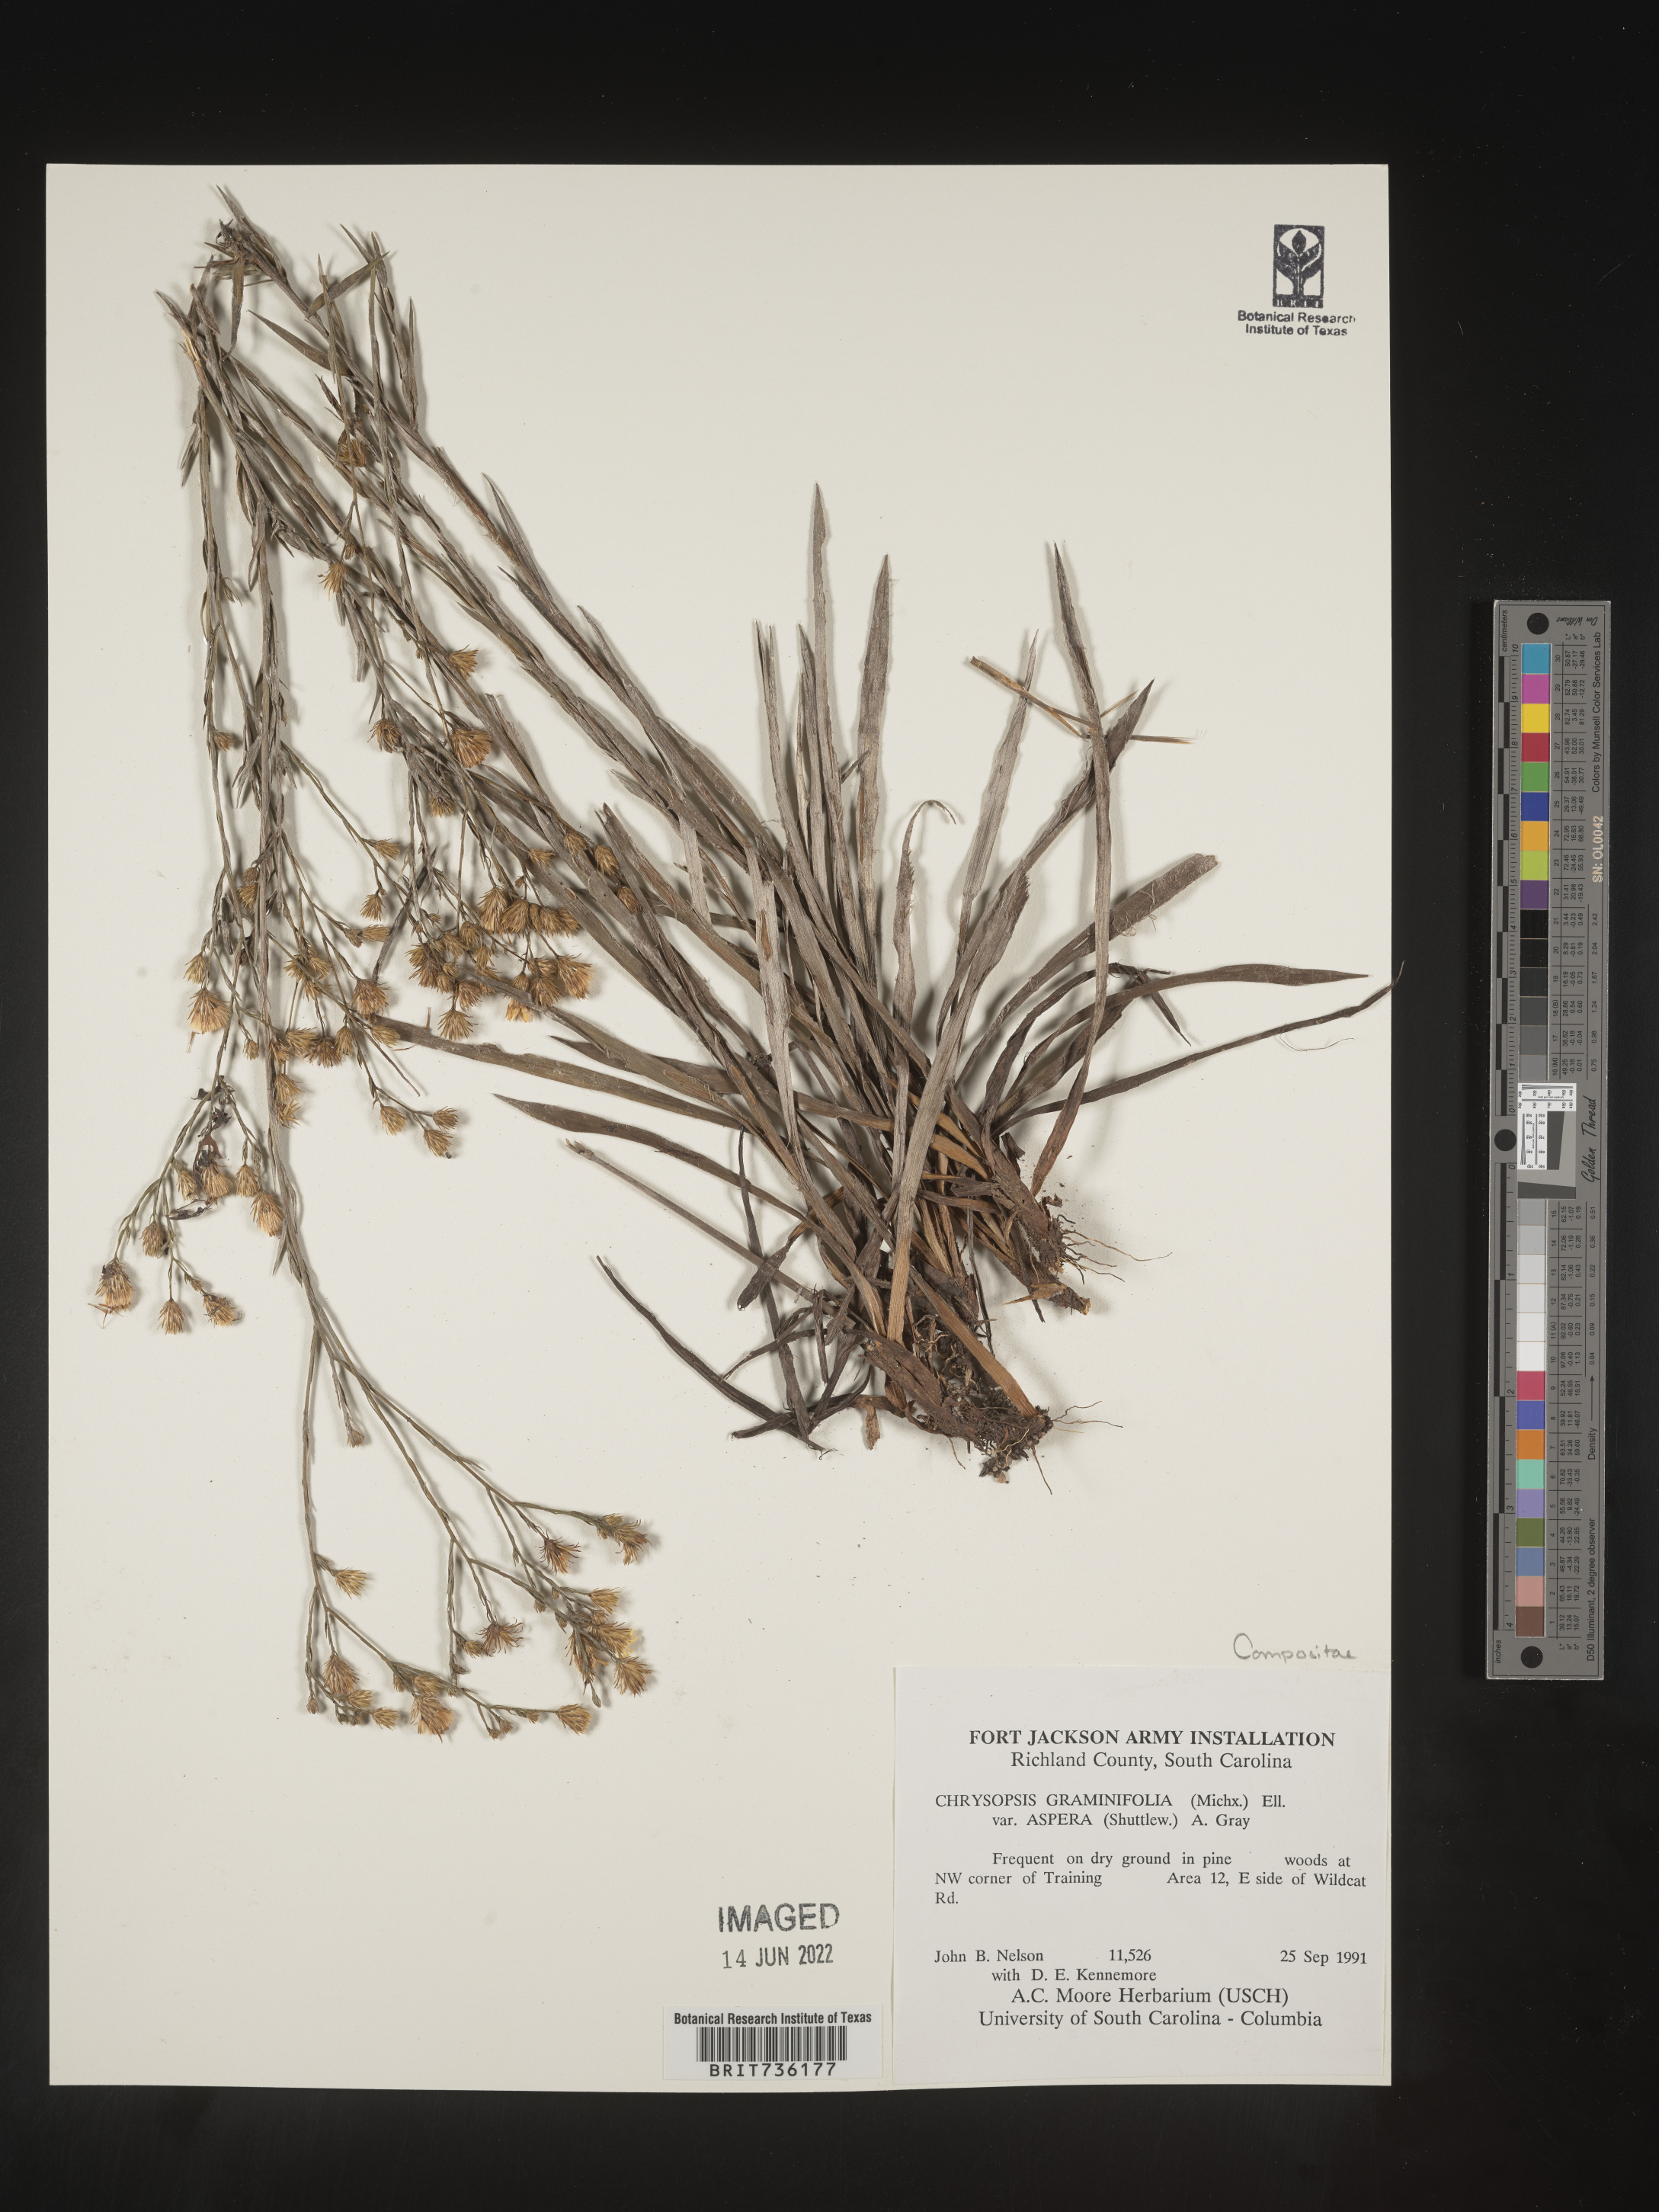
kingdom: Plantae
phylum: Tracheophyta
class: Magnoliopsida
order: Asterales
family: Asteraceae
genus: Pityopsis
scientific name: Pityopsis aspera
